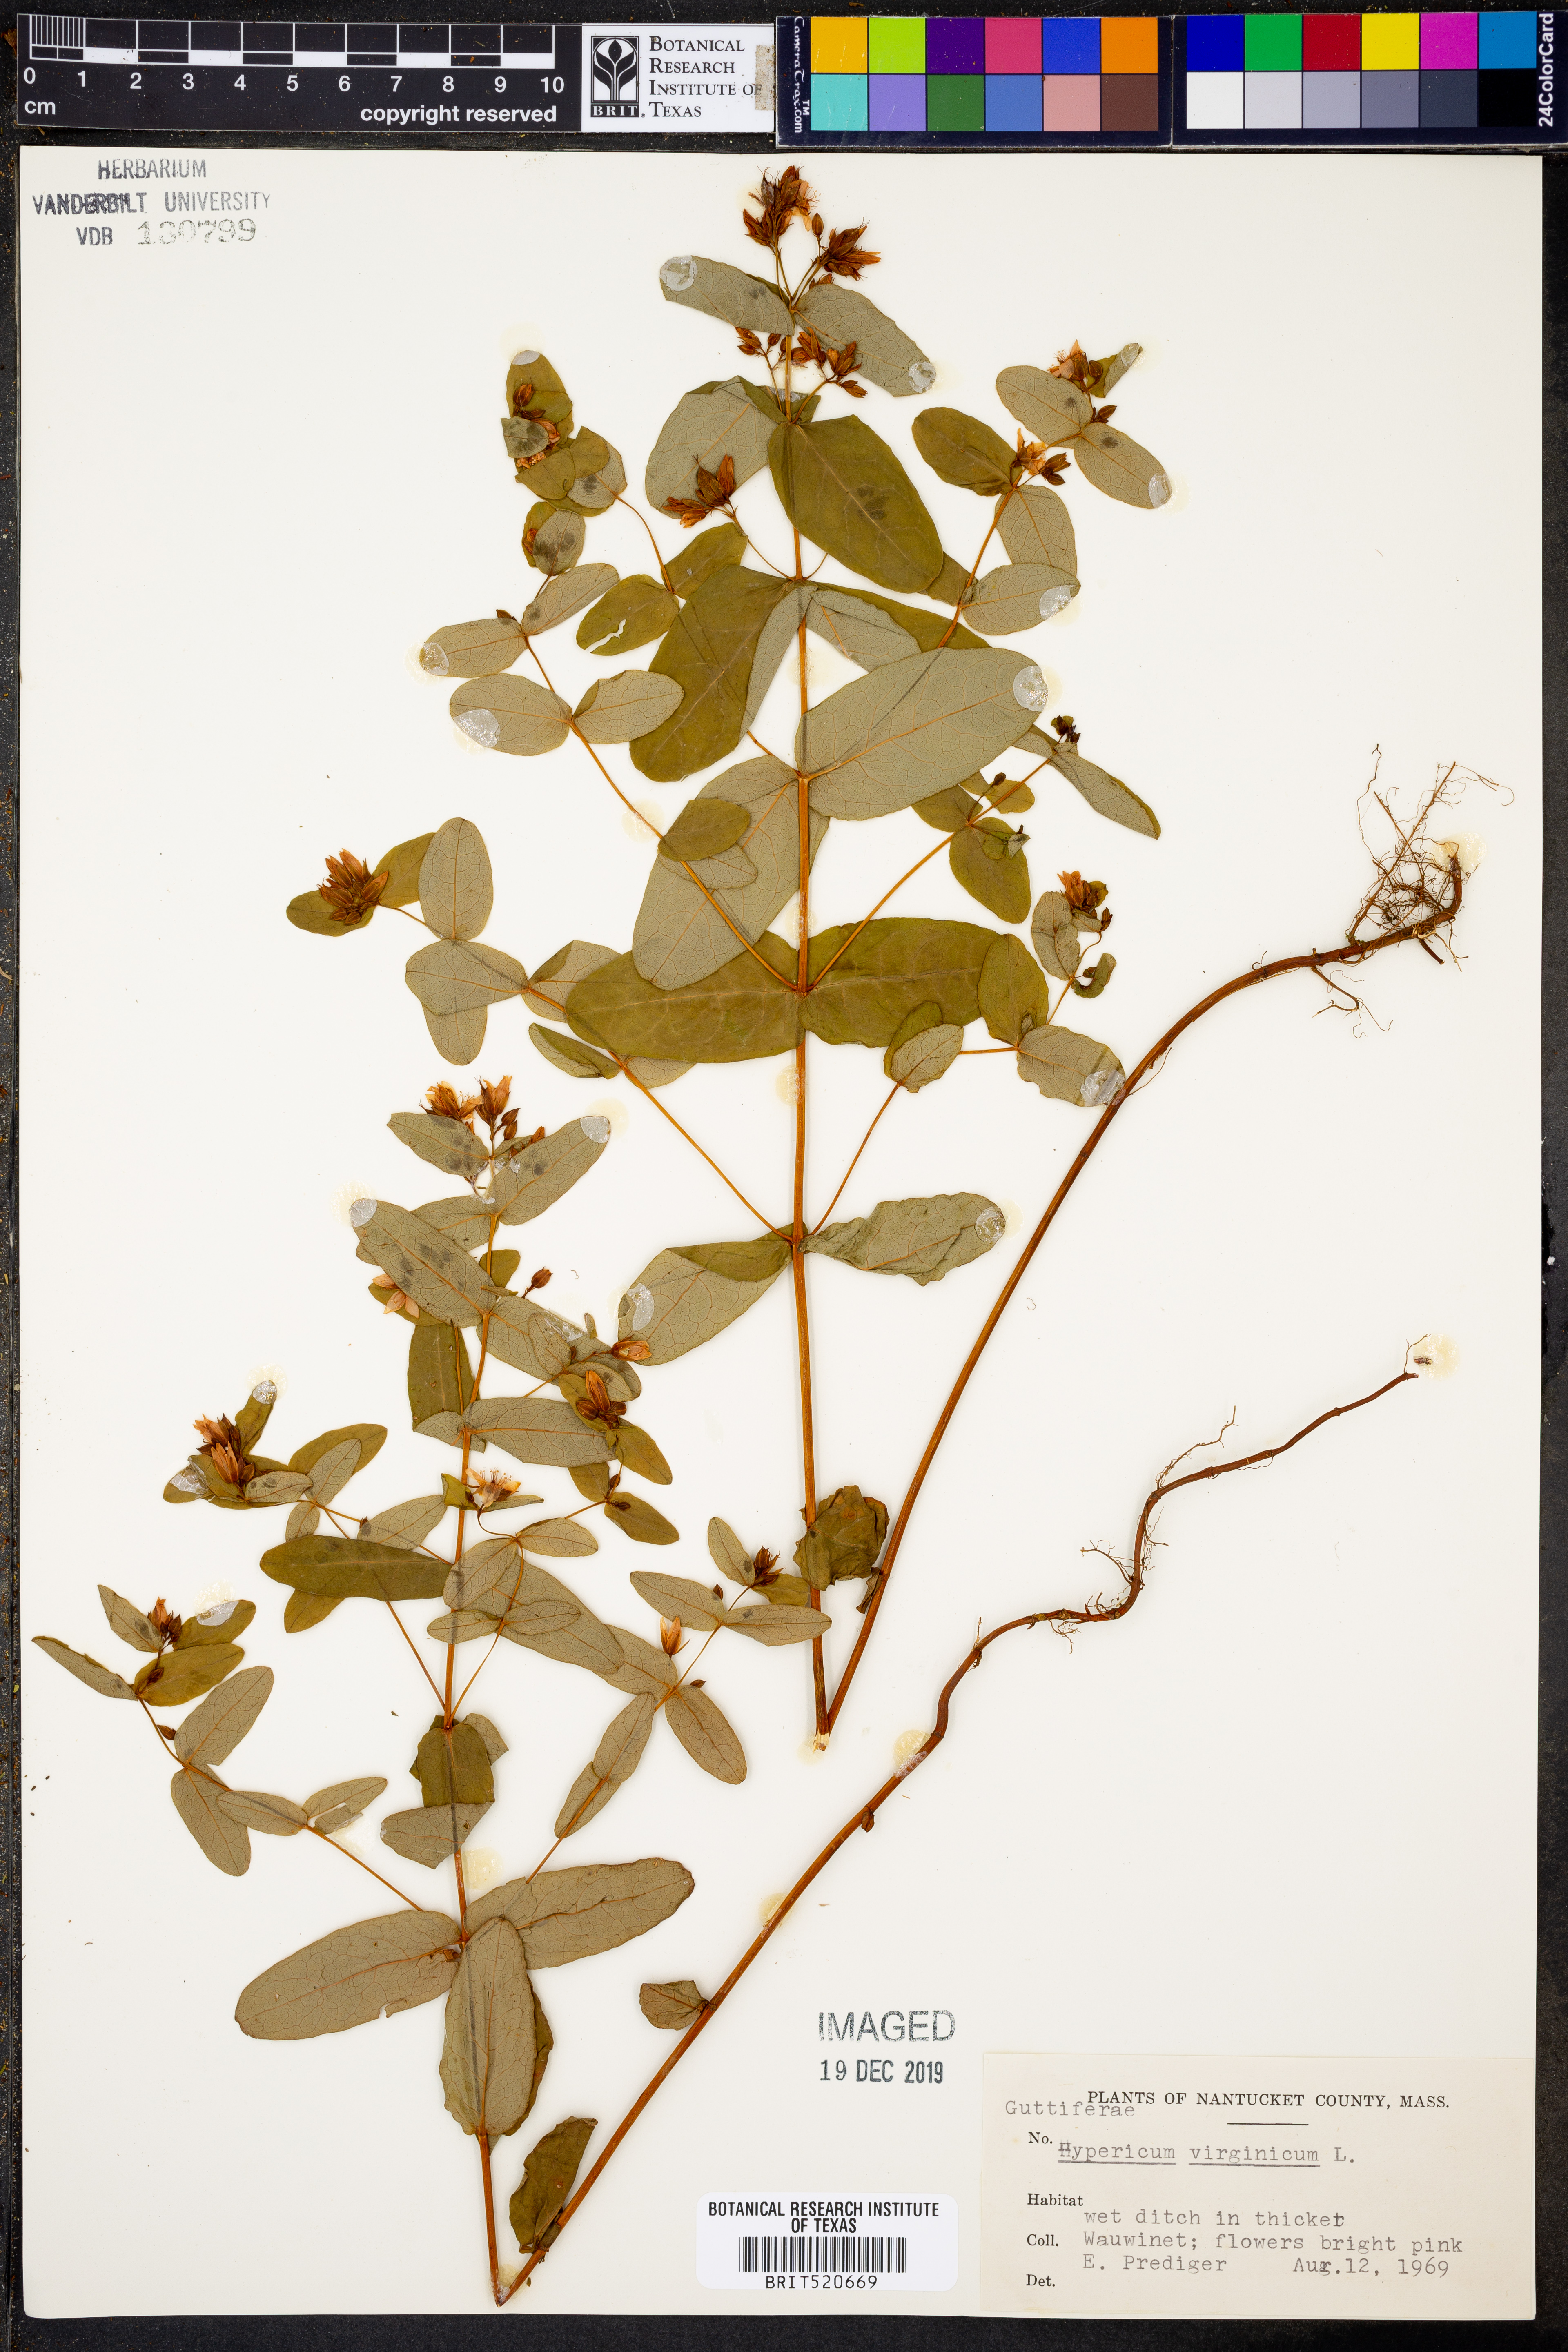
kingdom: Plantae
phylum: Tracheophyta
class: Magnoliopsida
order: Malpighiales
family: Hypericaceae
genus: Triadenum
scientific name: Triadenum virginicum
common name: Marsh st. john's-wort
